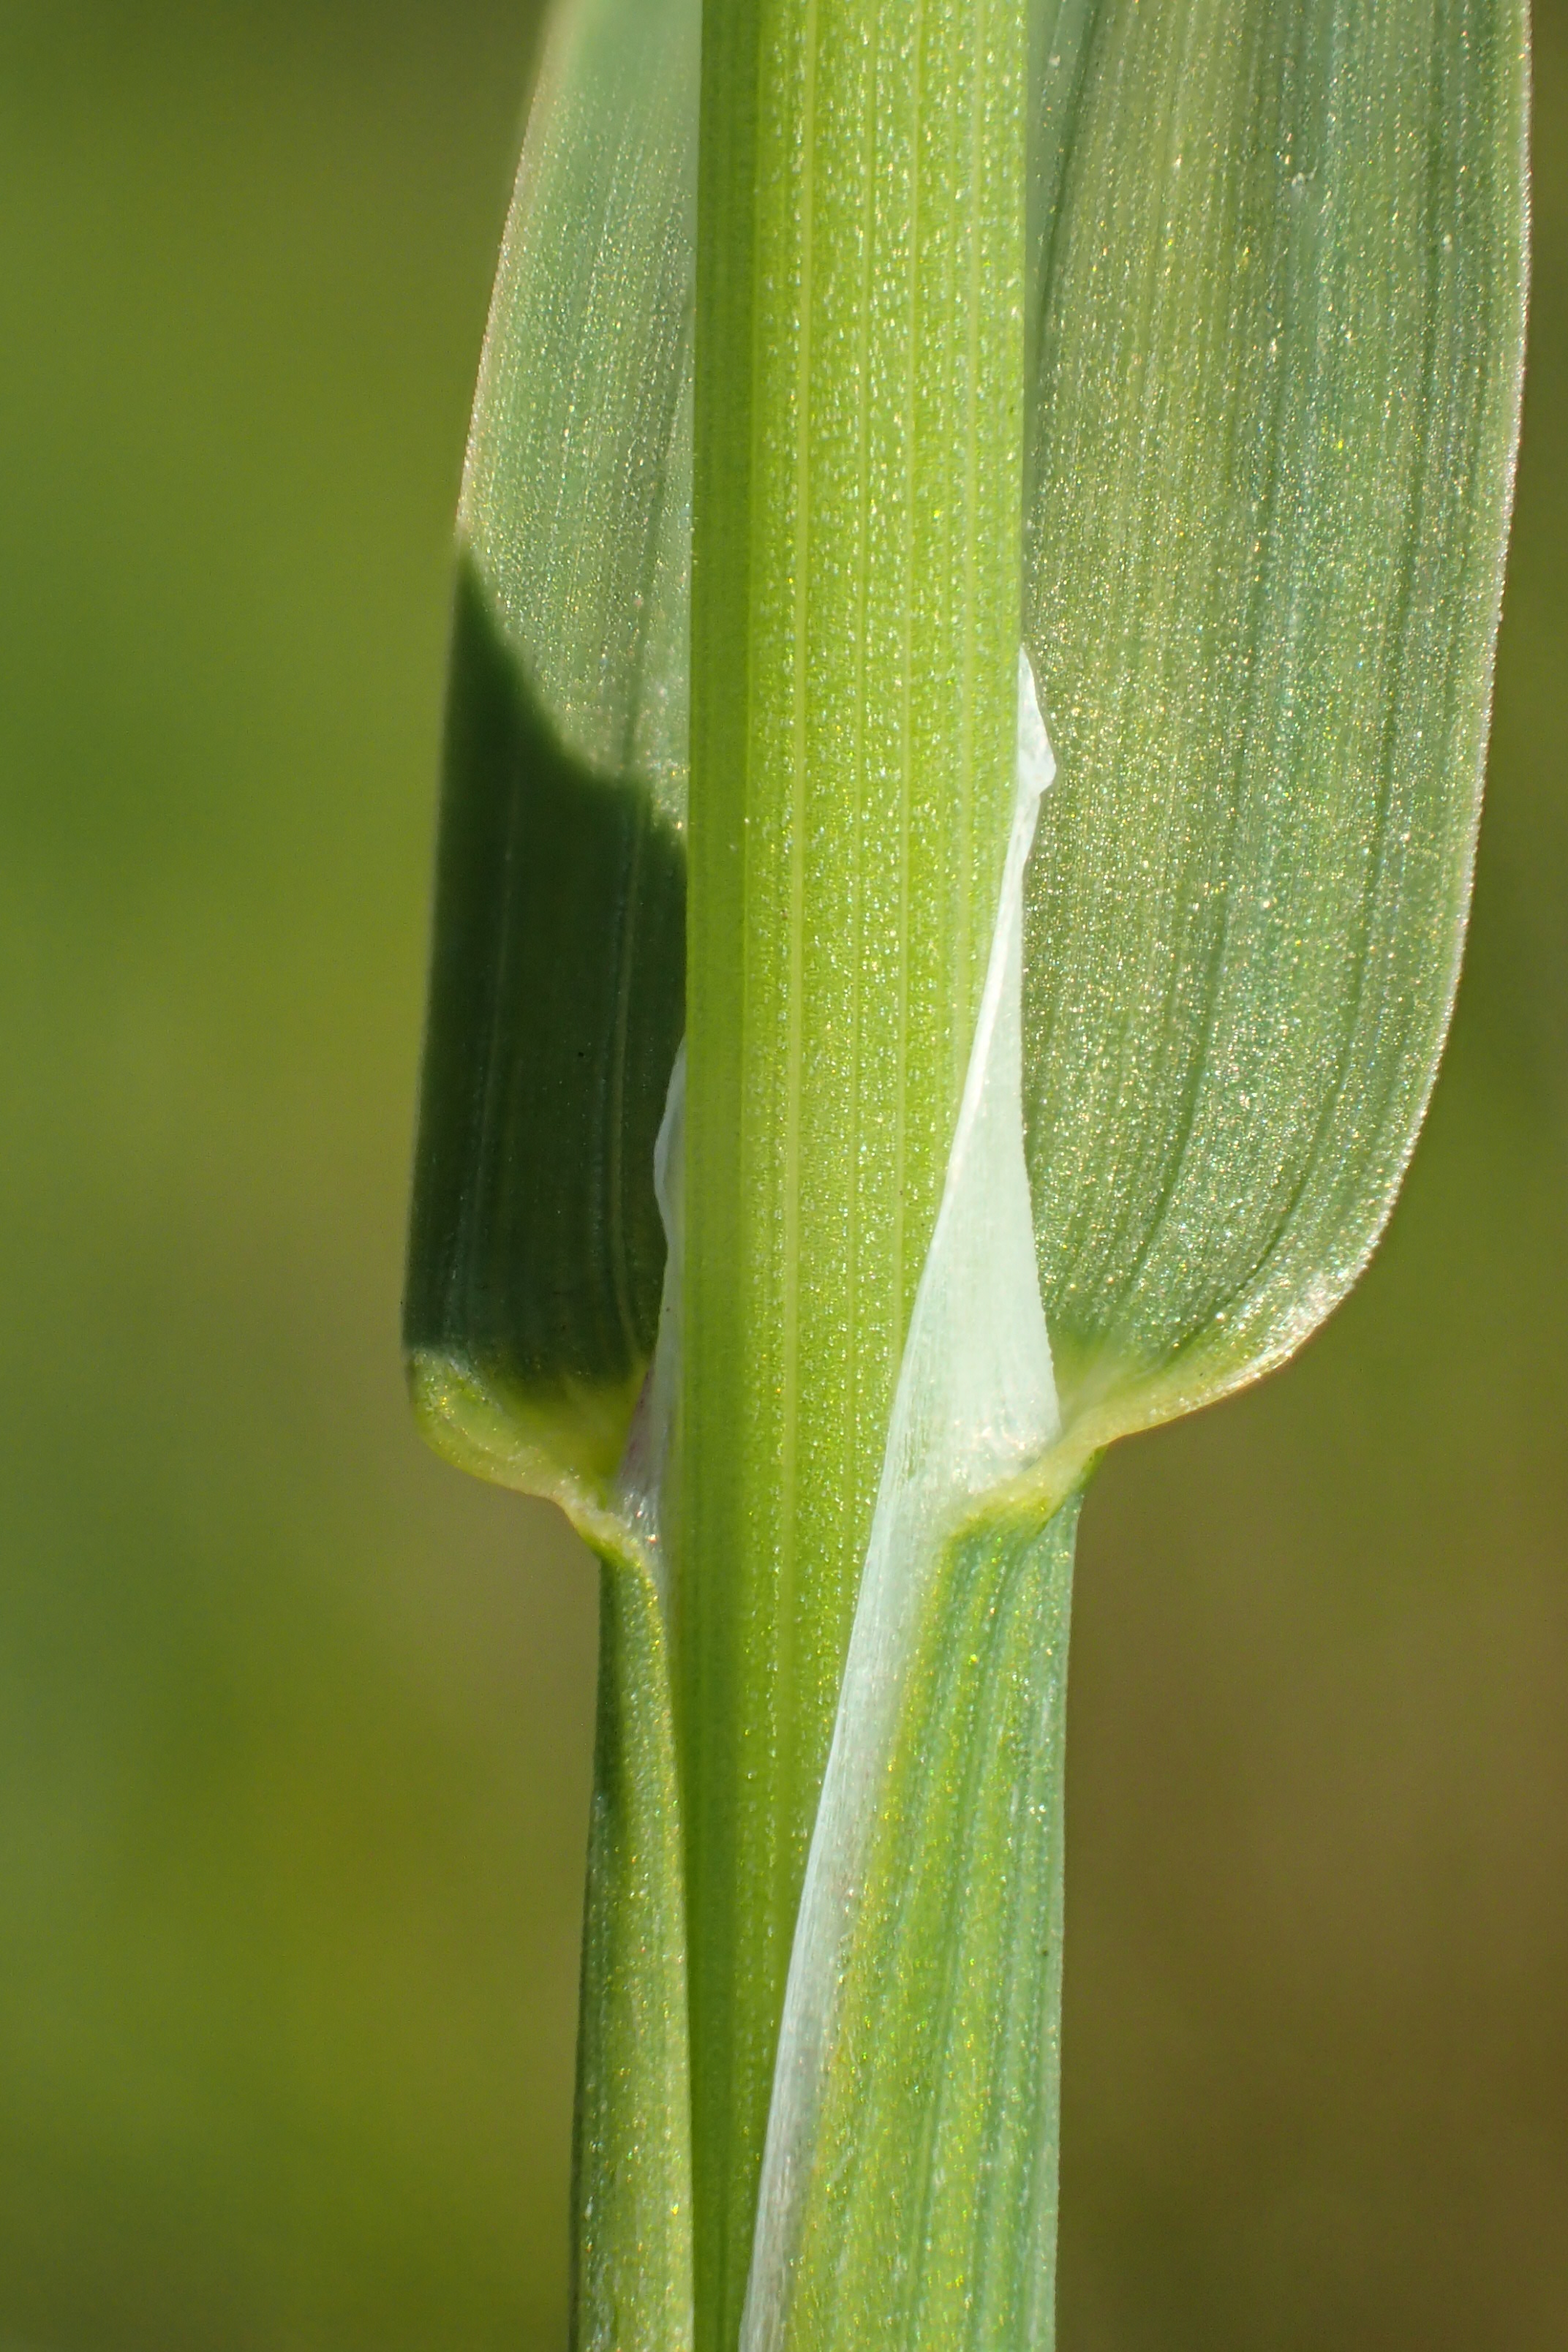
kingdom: Plantae
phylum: Tracheophyta
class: Liliopsida
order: Poales
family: Poaceae
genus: Catabrosa
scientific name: Catabrosa aquatica
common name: Tæppegræs
